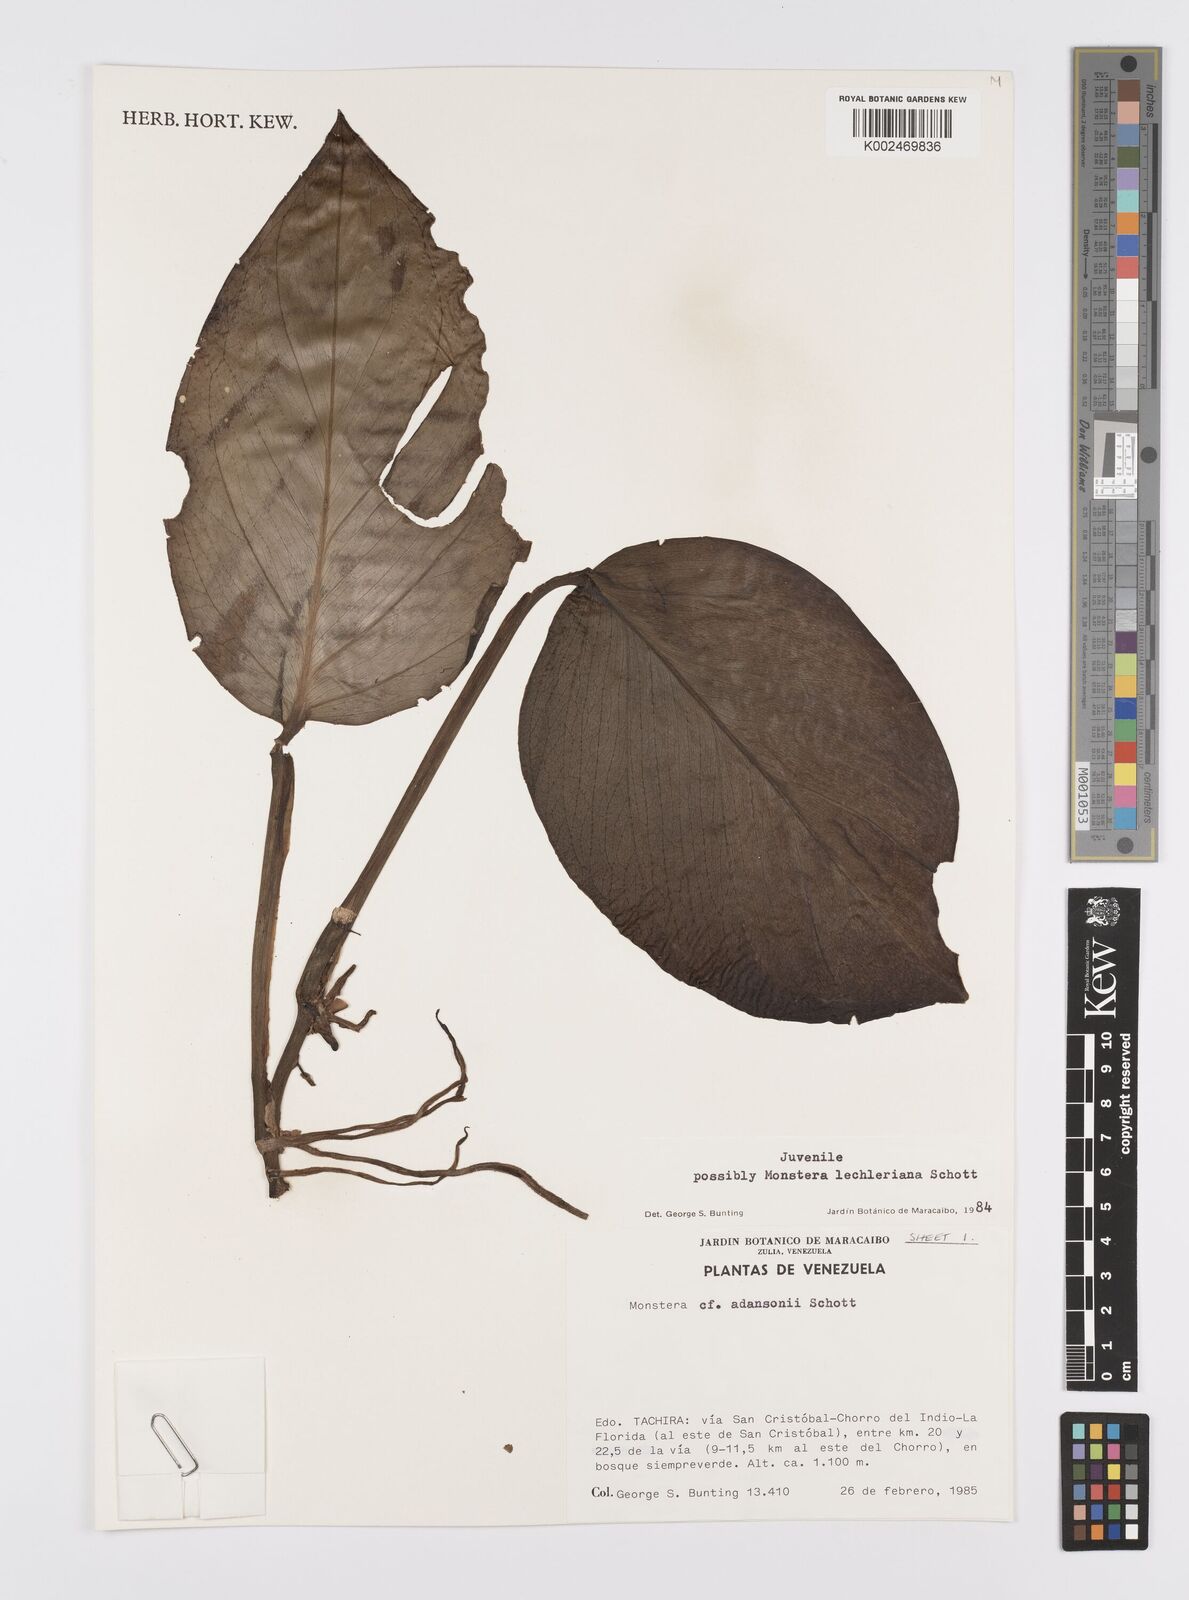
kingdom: Plantae
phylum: Tracheophyta
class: Liliopsida
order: Alismatales
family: Araceae
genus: Monstera
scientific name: Monstera lechleriana
